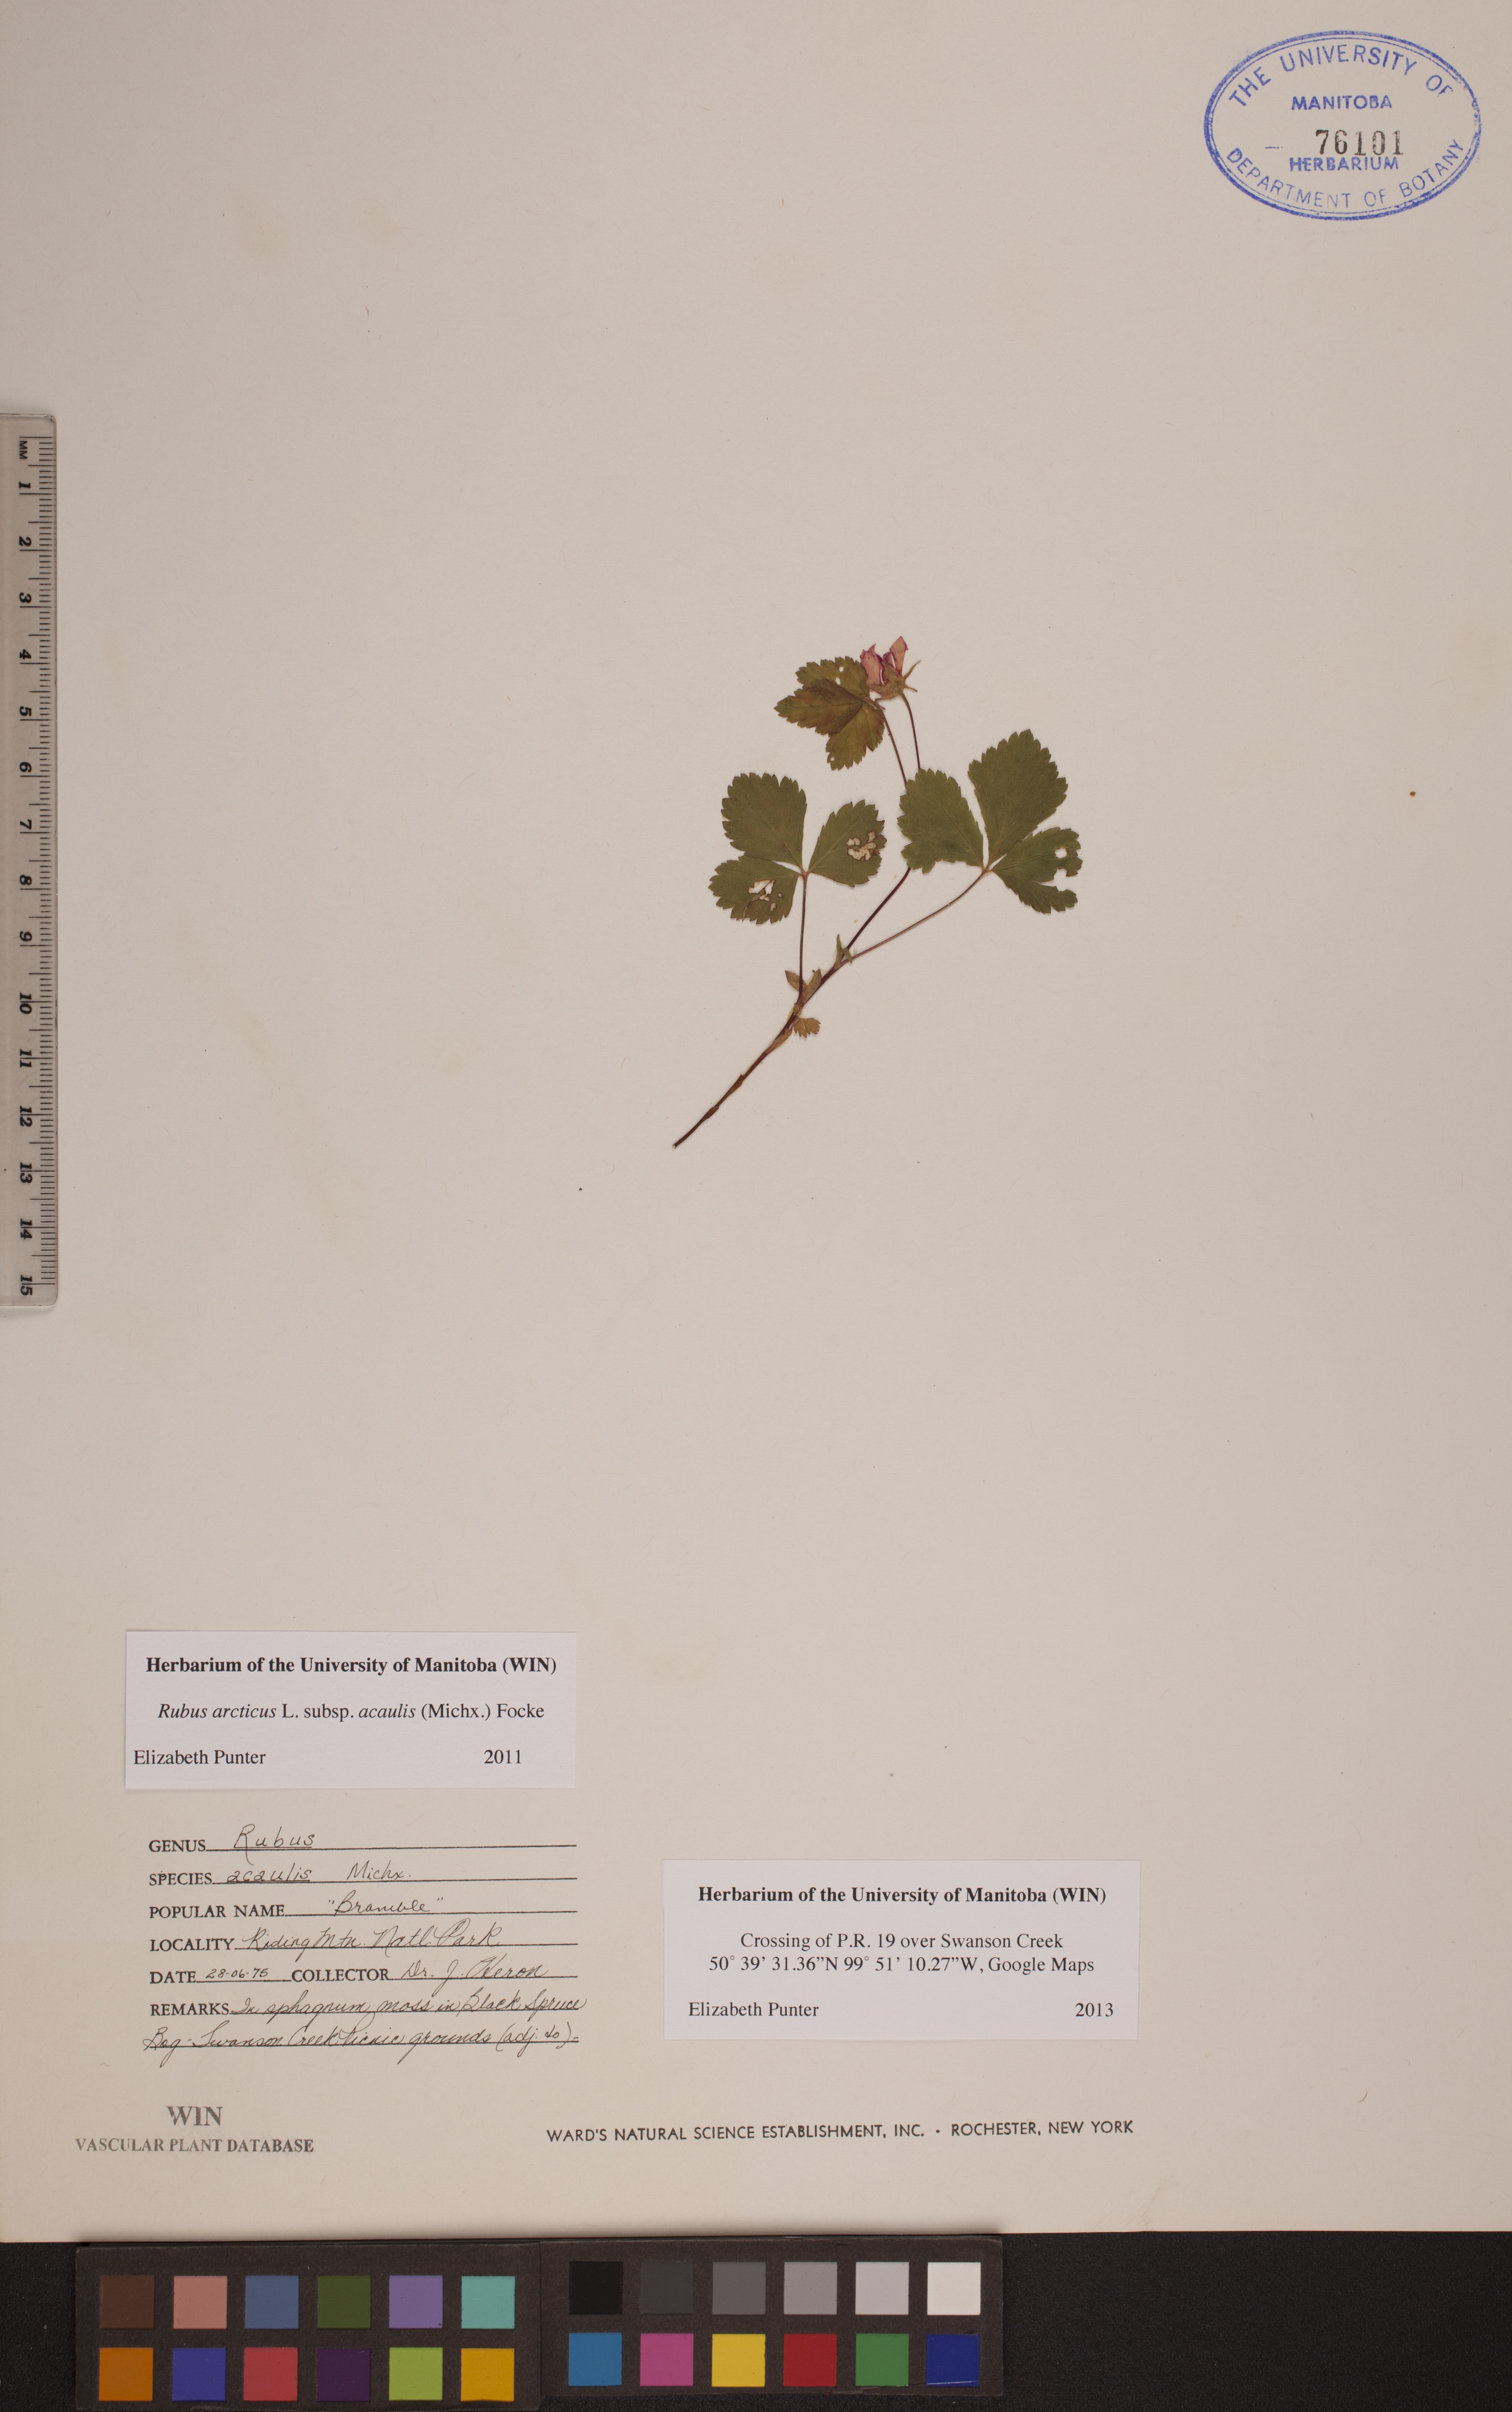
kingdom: Plantae
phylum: Tracheophyta
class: Magnoliopsida
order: Rosales
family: Rosaceae
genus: Rubus
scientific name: Rubus arcticus
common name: Arctic bramble
